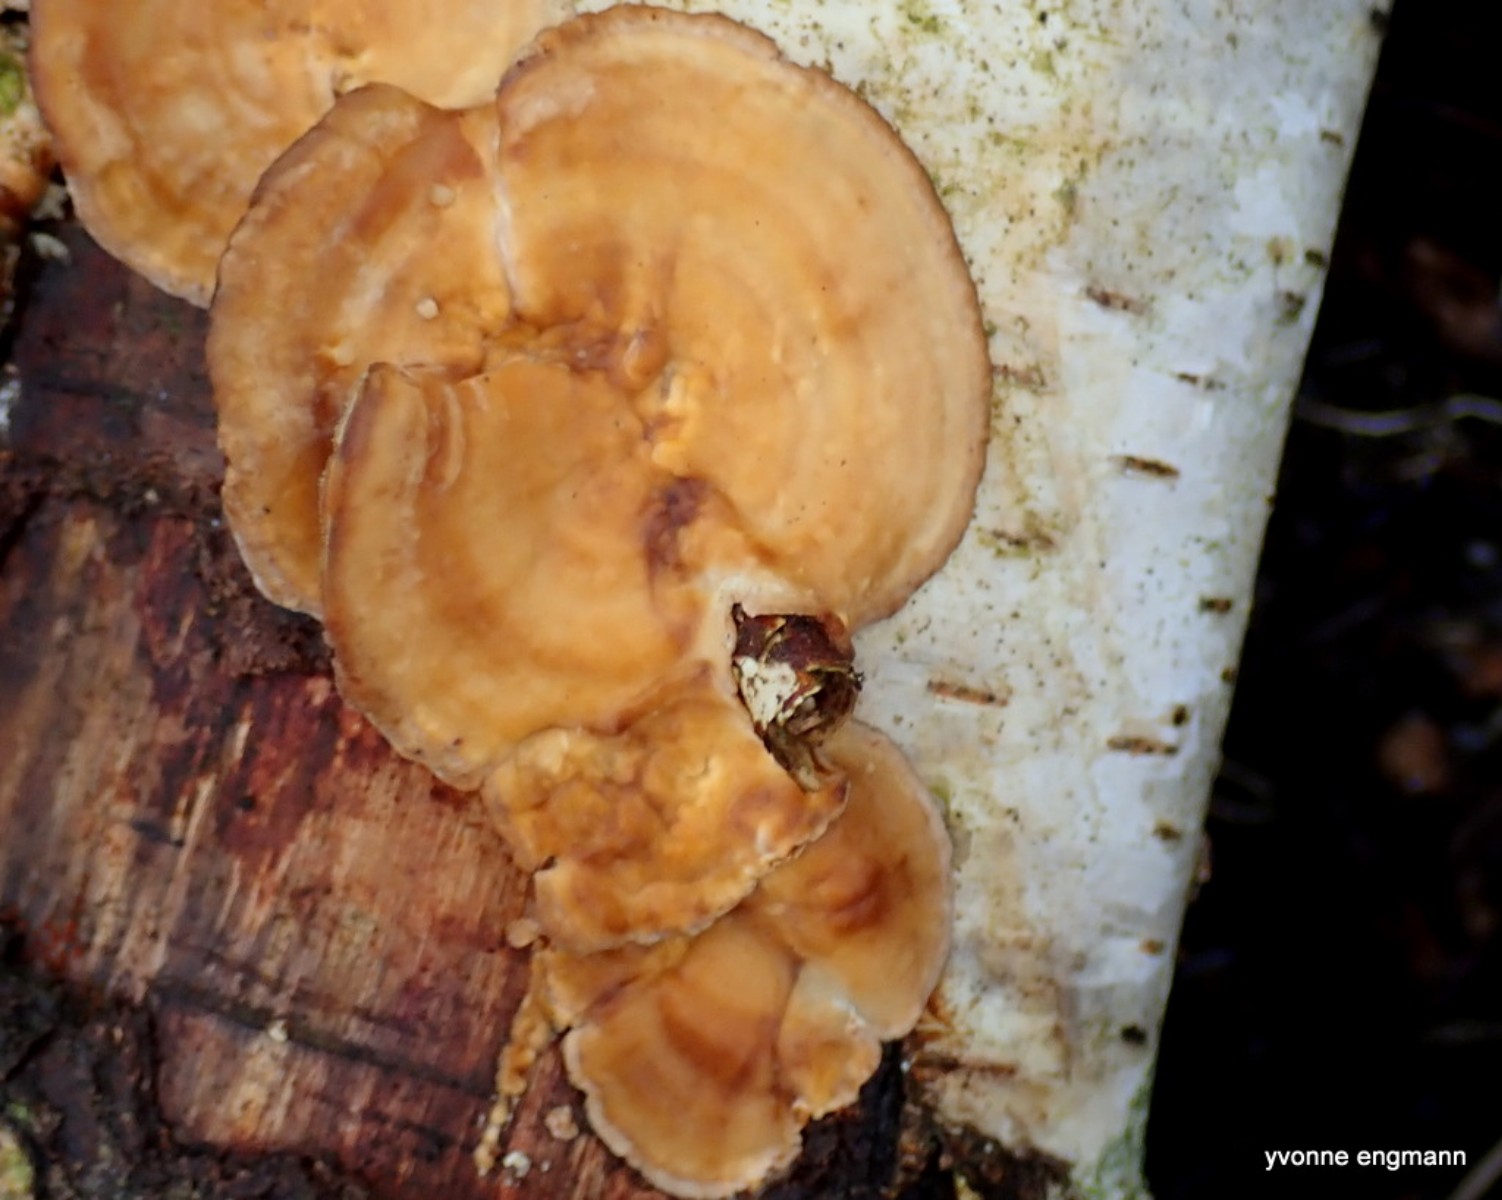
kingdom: Fungi
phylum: Basidiomycota
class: Agaricomycetes
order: Russulales
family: Stereaceae
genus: Stereum
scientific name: Stereum hirsutum
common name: håret lædersvamp
